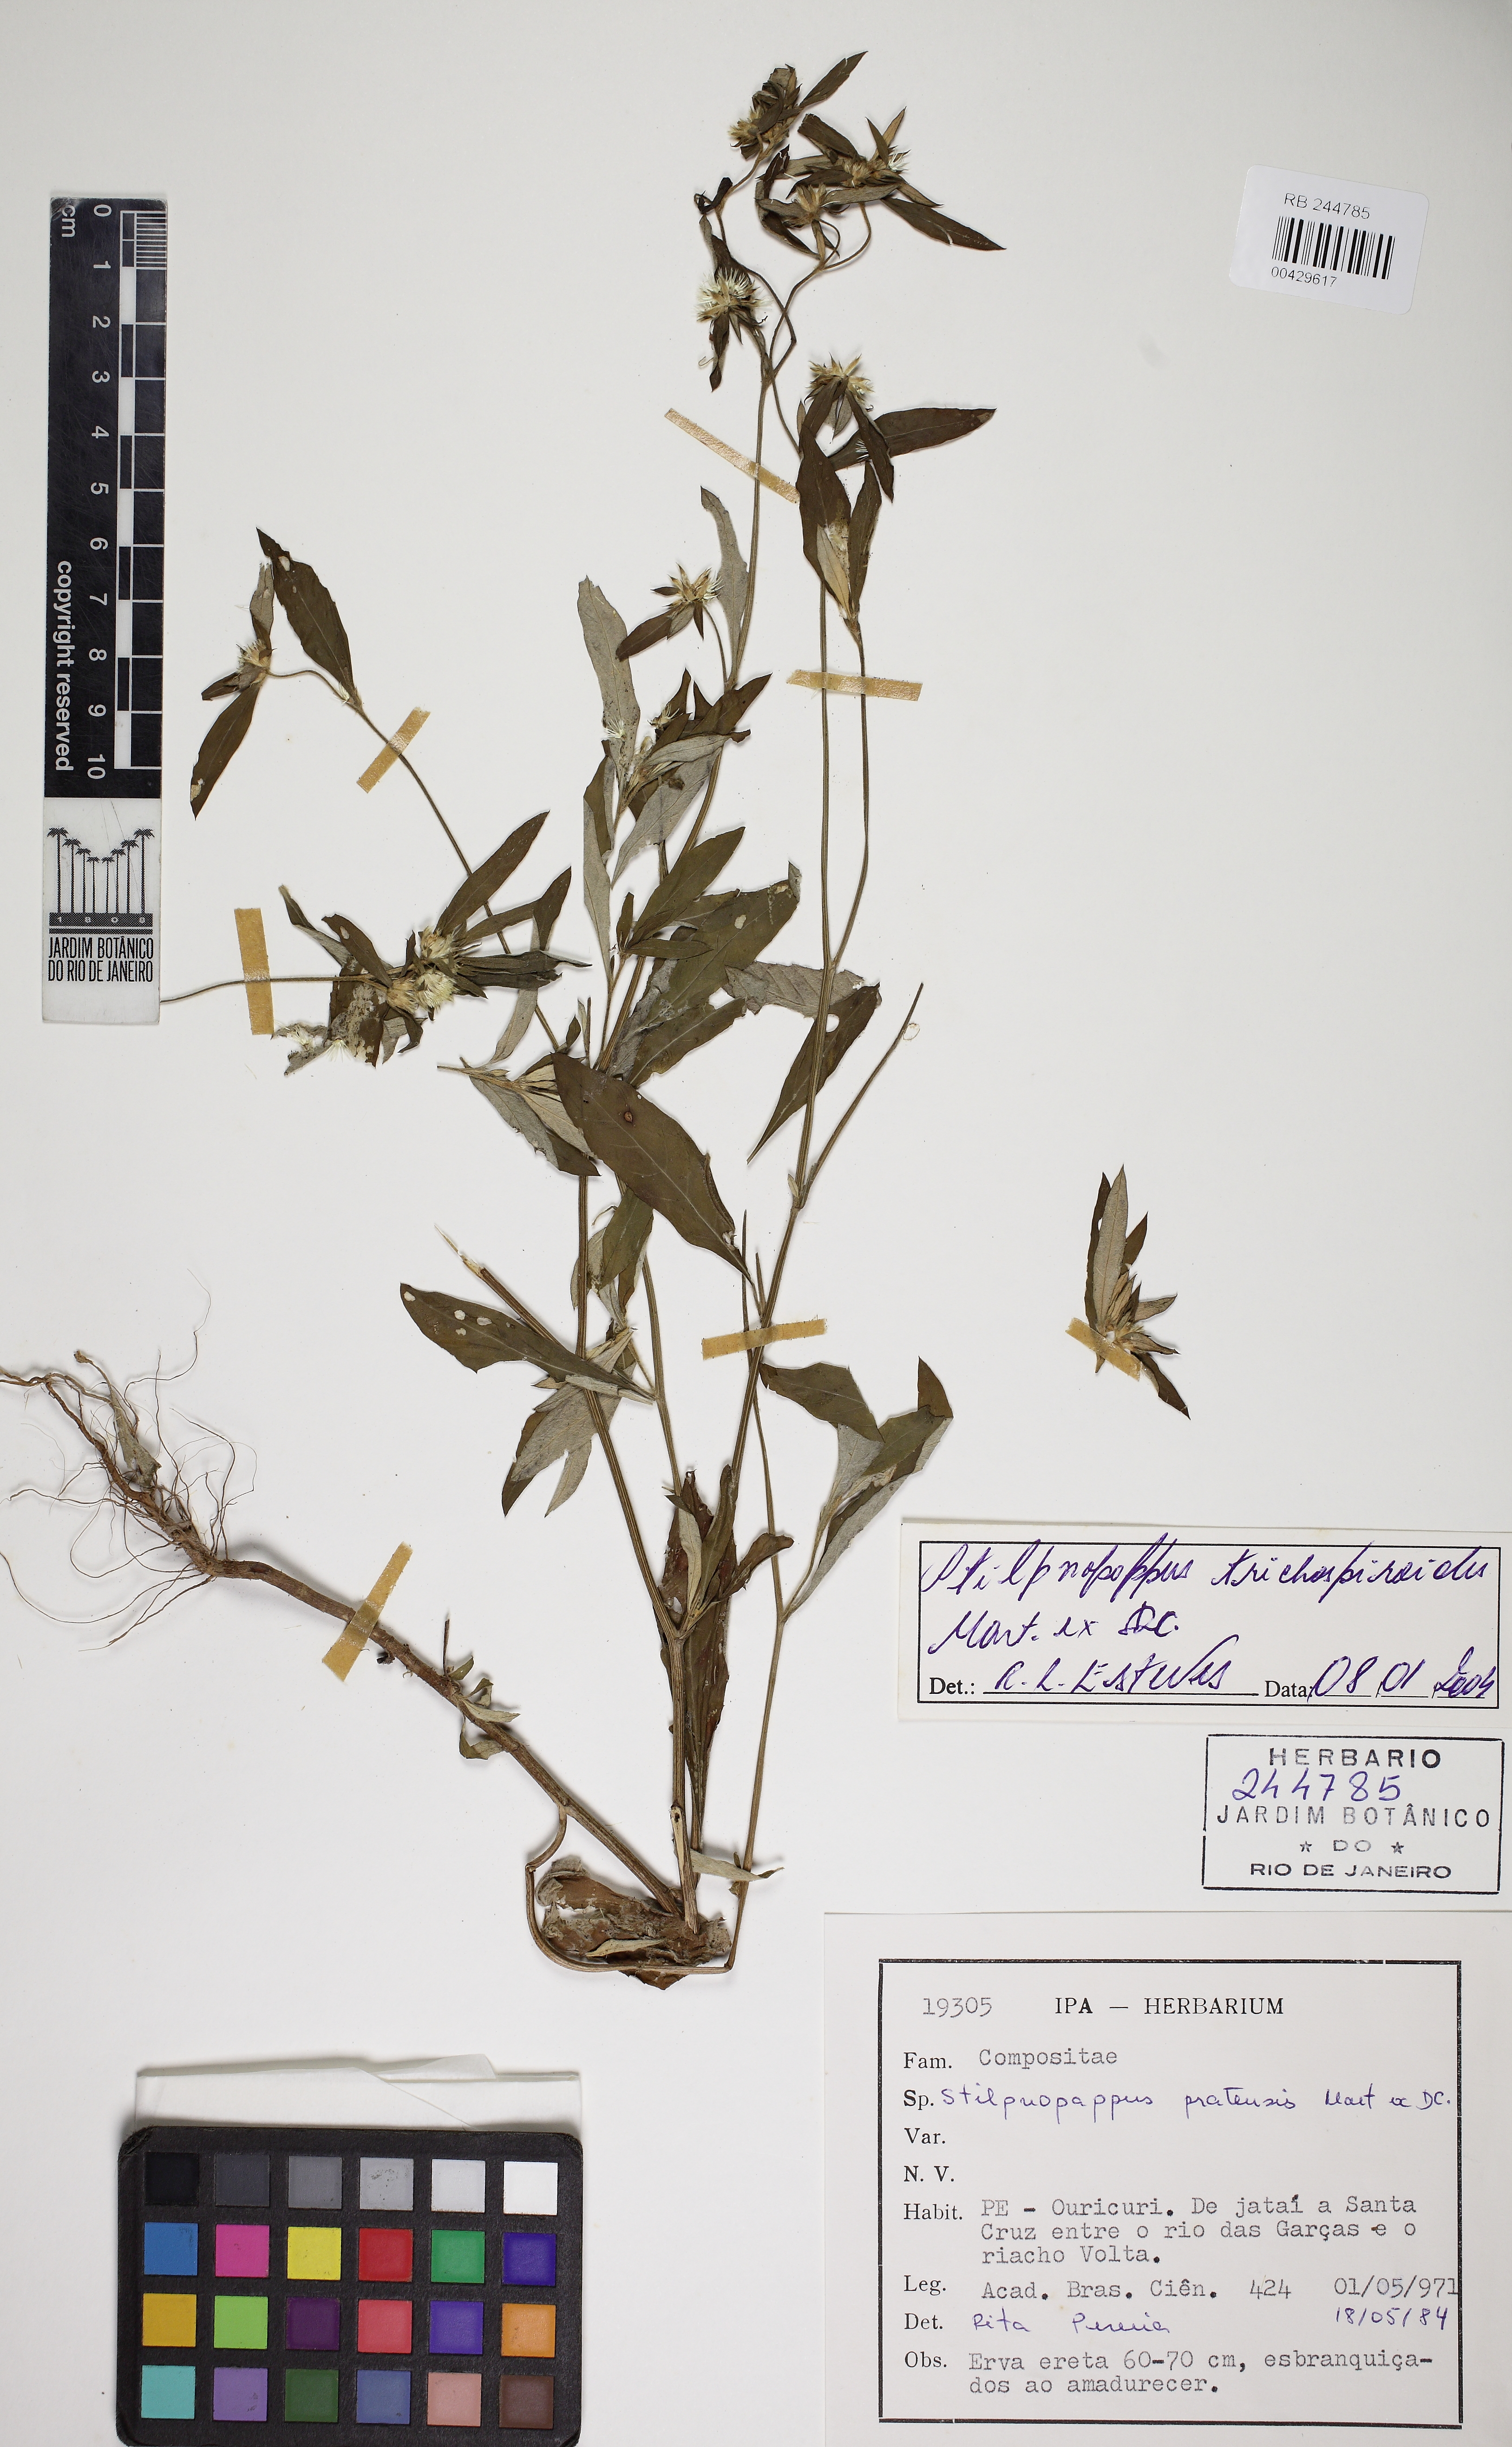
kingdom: Plantae
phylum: Tracheophyta
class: Magnoliopsida
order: Asterales
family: Asteraceae
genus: Stilpnopappus
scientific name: Stilpnopappus trichospiroides
